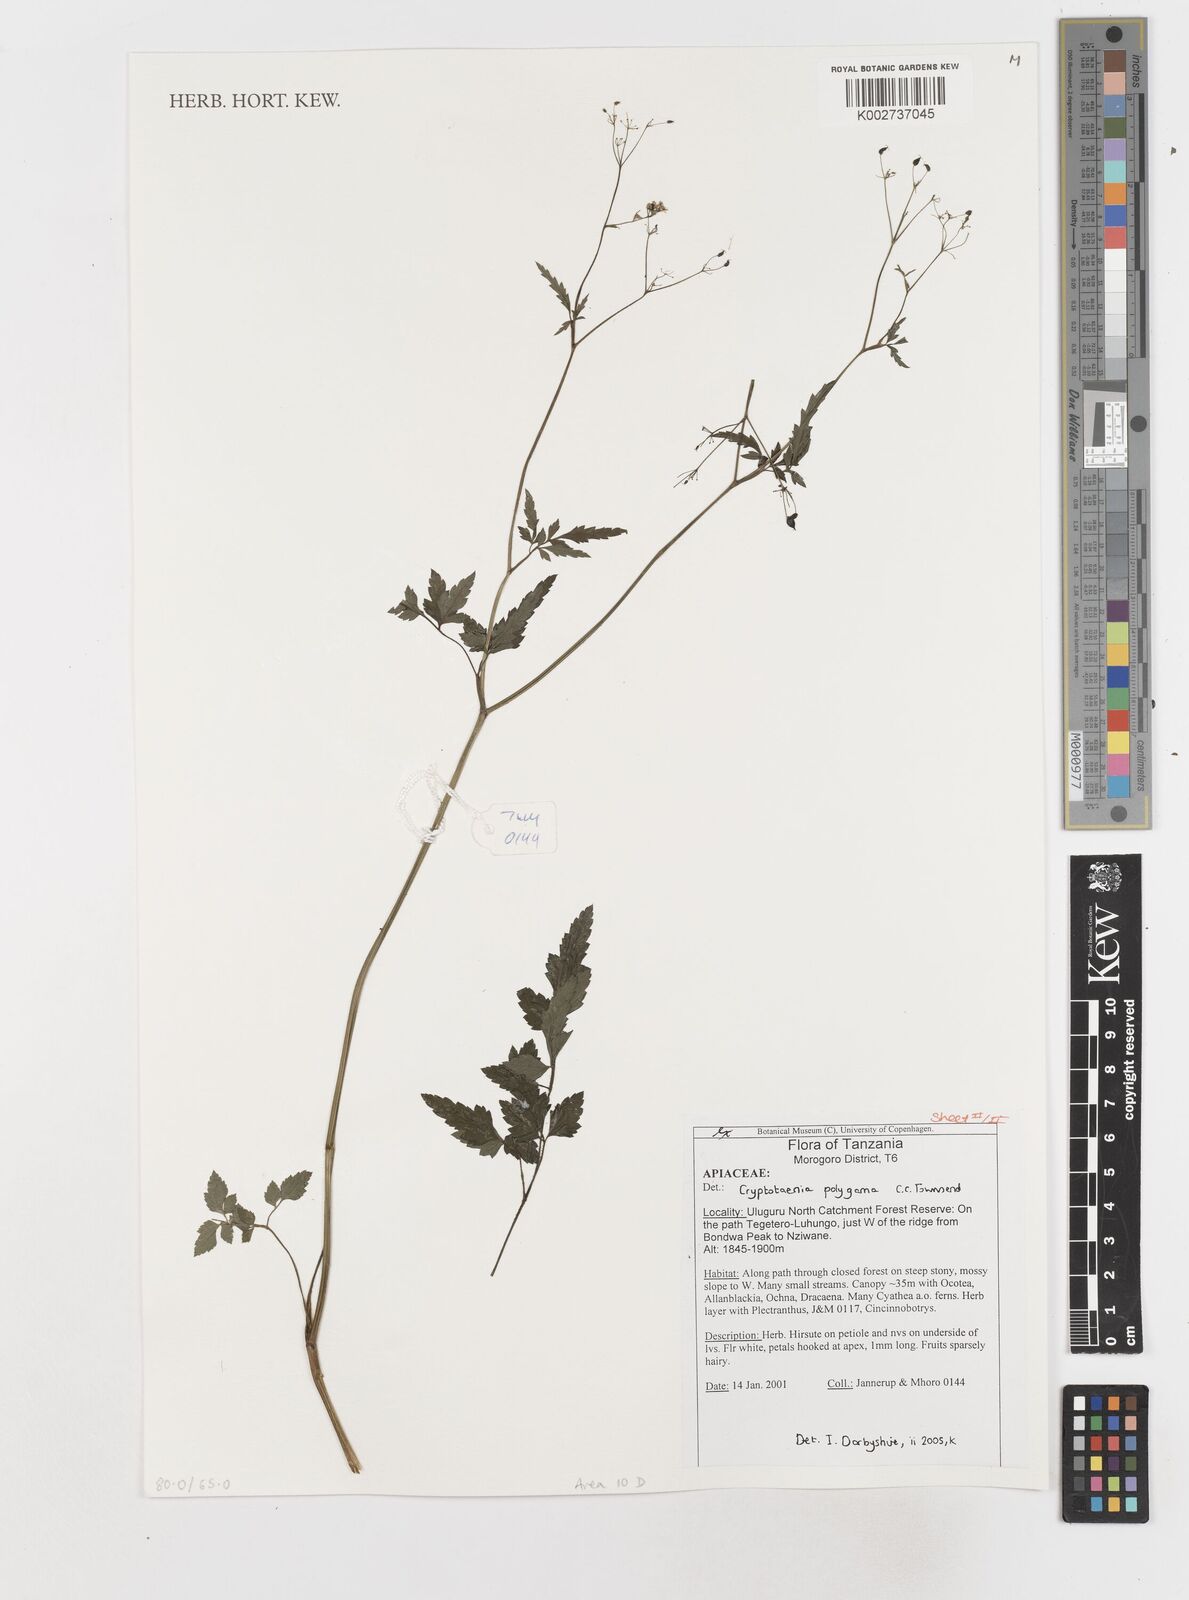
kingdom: Plantae
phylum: Tracheophyta
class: Magnoliopsida
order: Apiales
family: Apiaceae
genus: Cryptotaenia
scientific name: Cryptotaenia polygama
